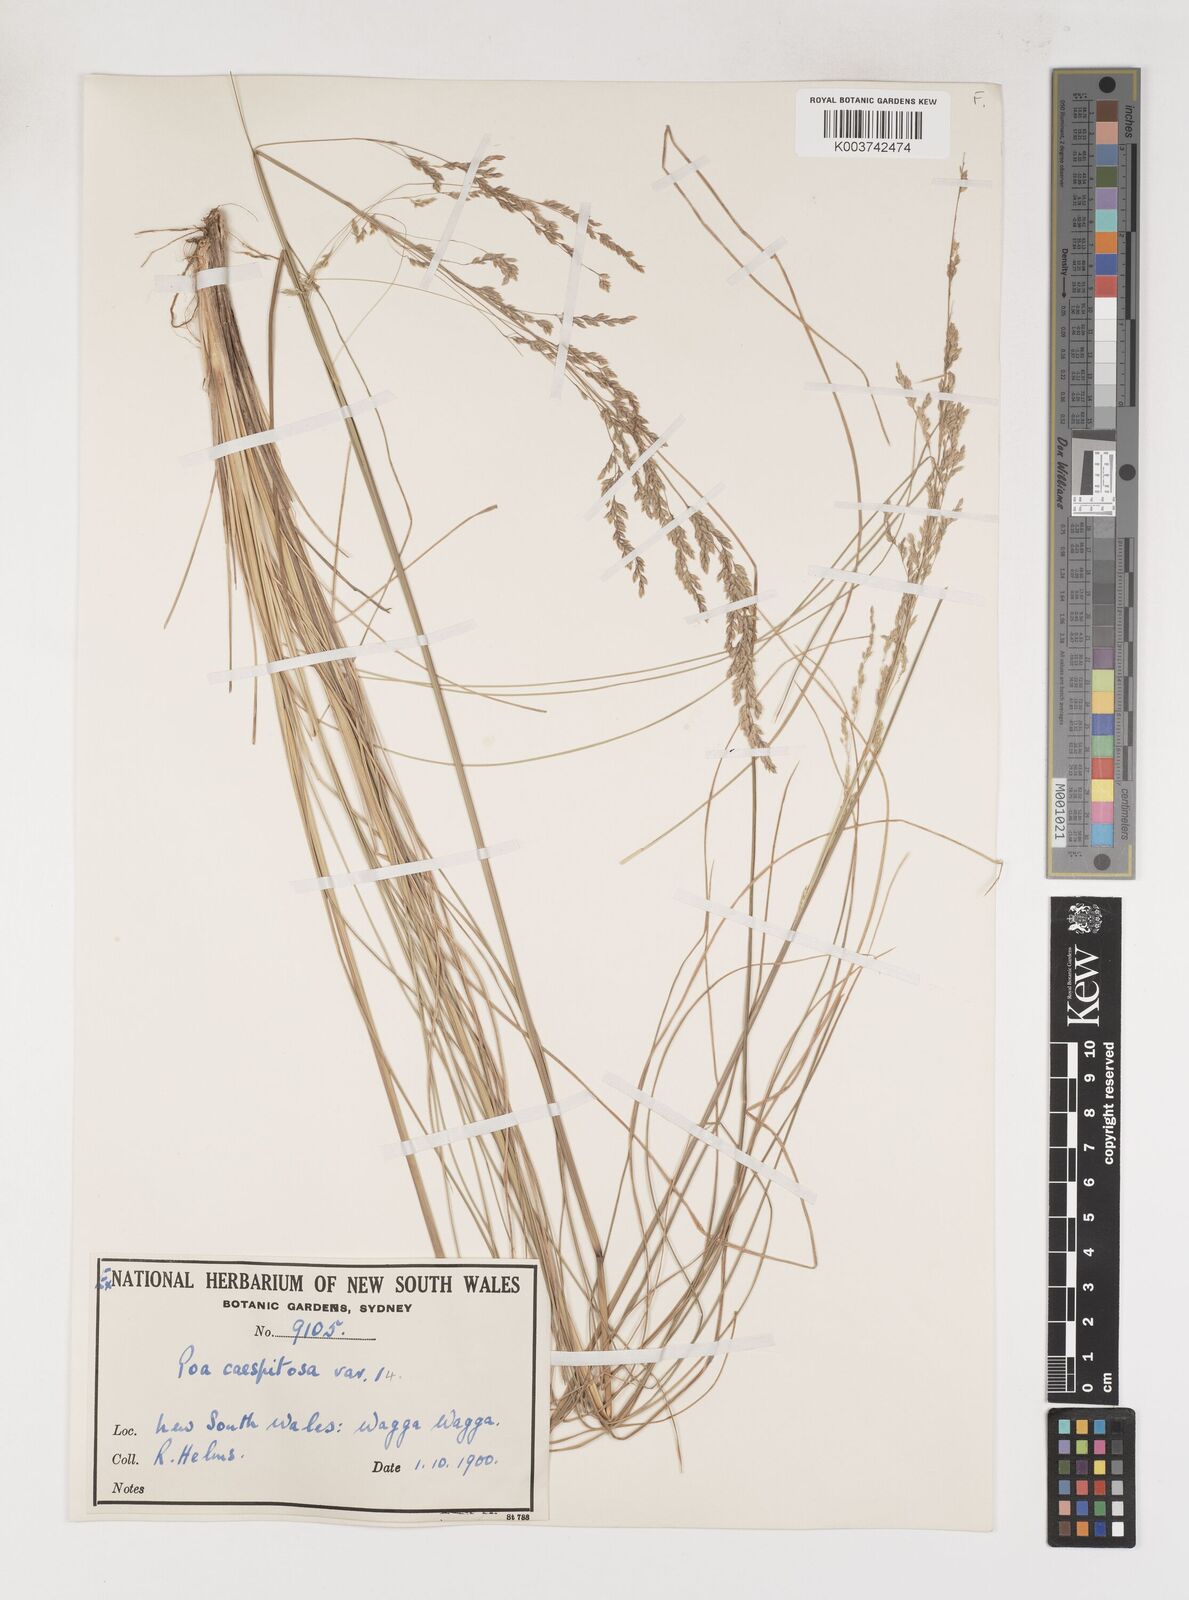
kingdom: Plantae
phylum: Tracheophyta
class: Liliopsida
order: Poales
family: Poaceae
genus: Poa
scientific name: Poa
